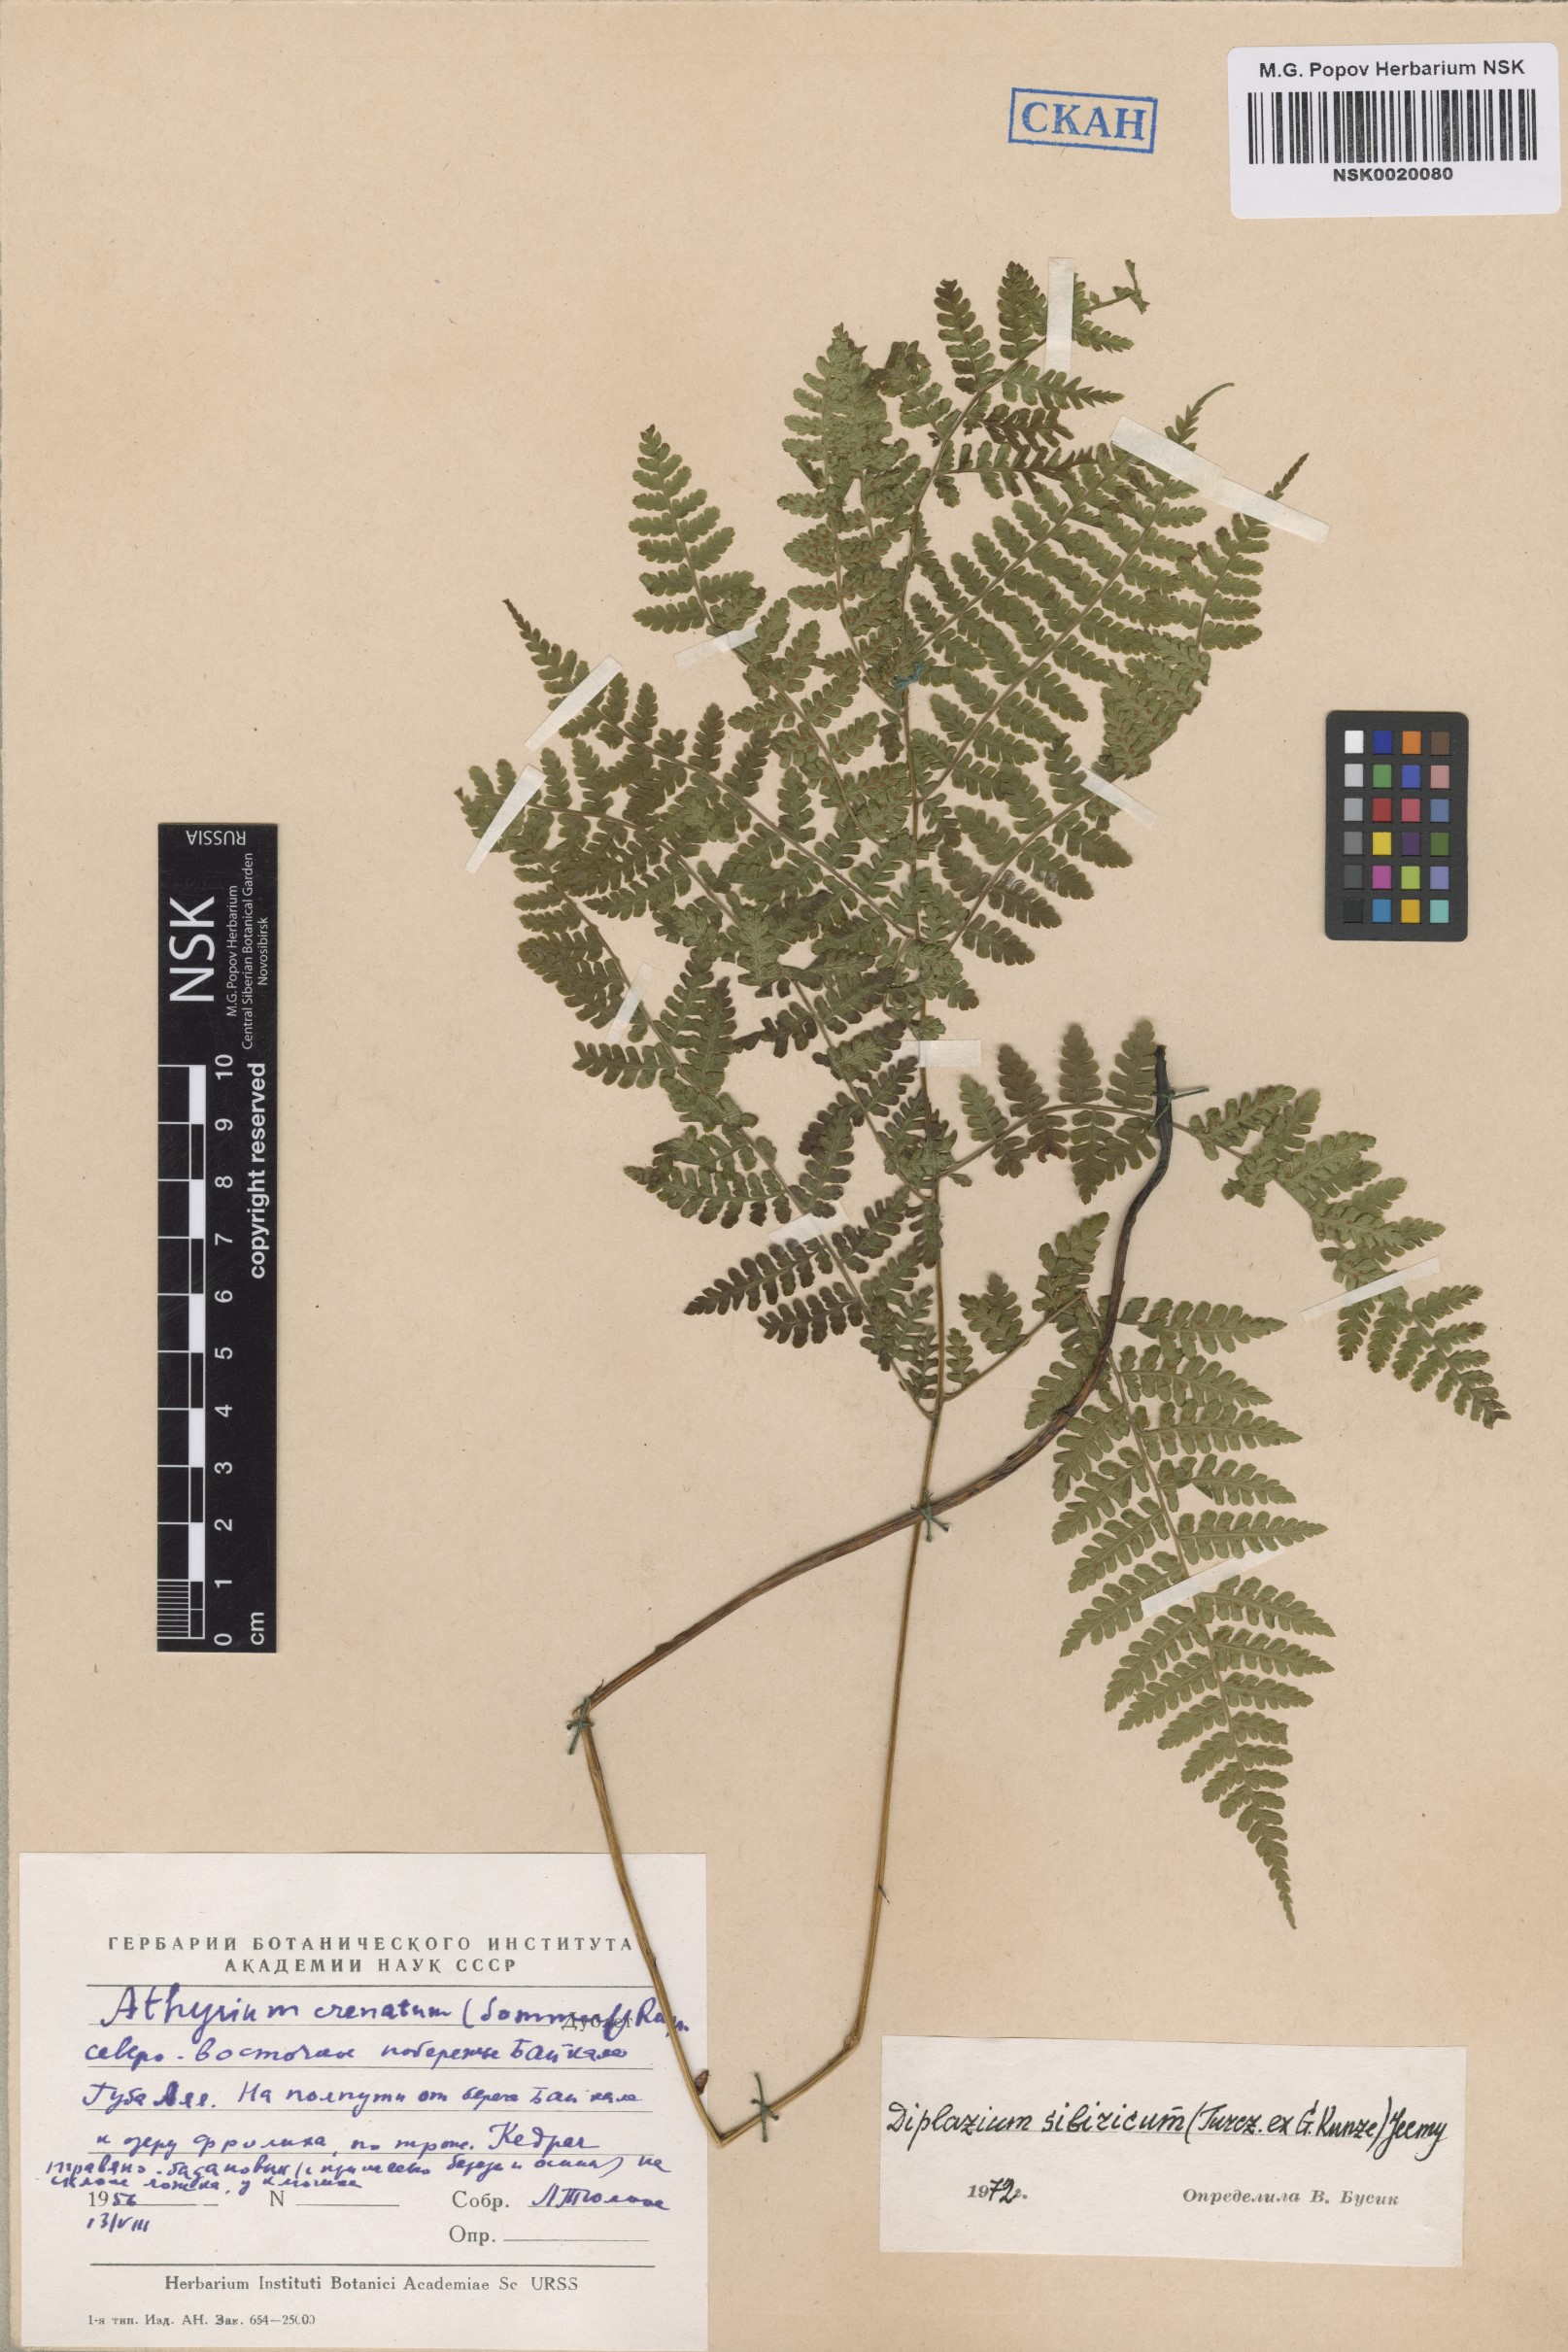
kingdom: Plantae
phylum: Tracheophyta
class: Polypodiopsida
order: Polypodiales
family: Athyriaceae
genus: Diplazium
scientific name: Diplazium sibiricum
